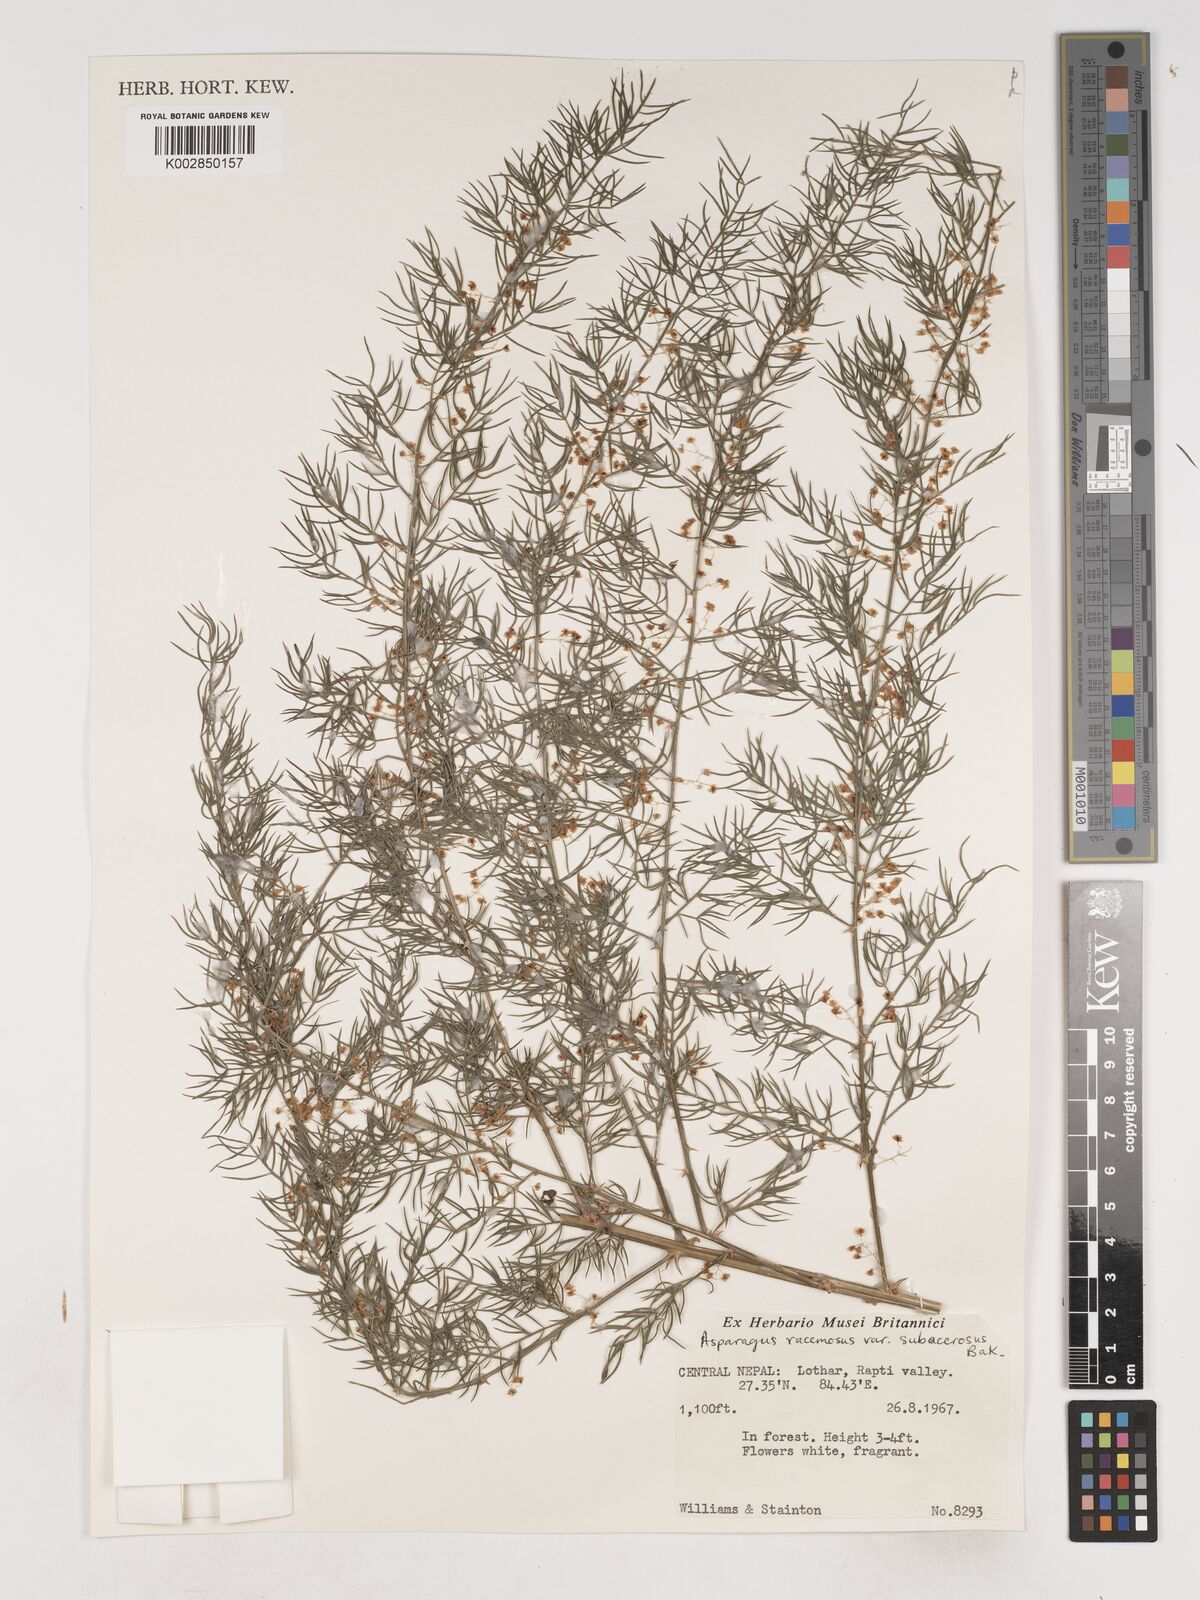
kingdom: Plantae
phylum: Tracheophyta
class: Liliopsida
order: Asparagales
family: Asparagaceae
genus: Asparagus
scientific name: Asparagus racemosus
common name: Asparagus-fern
